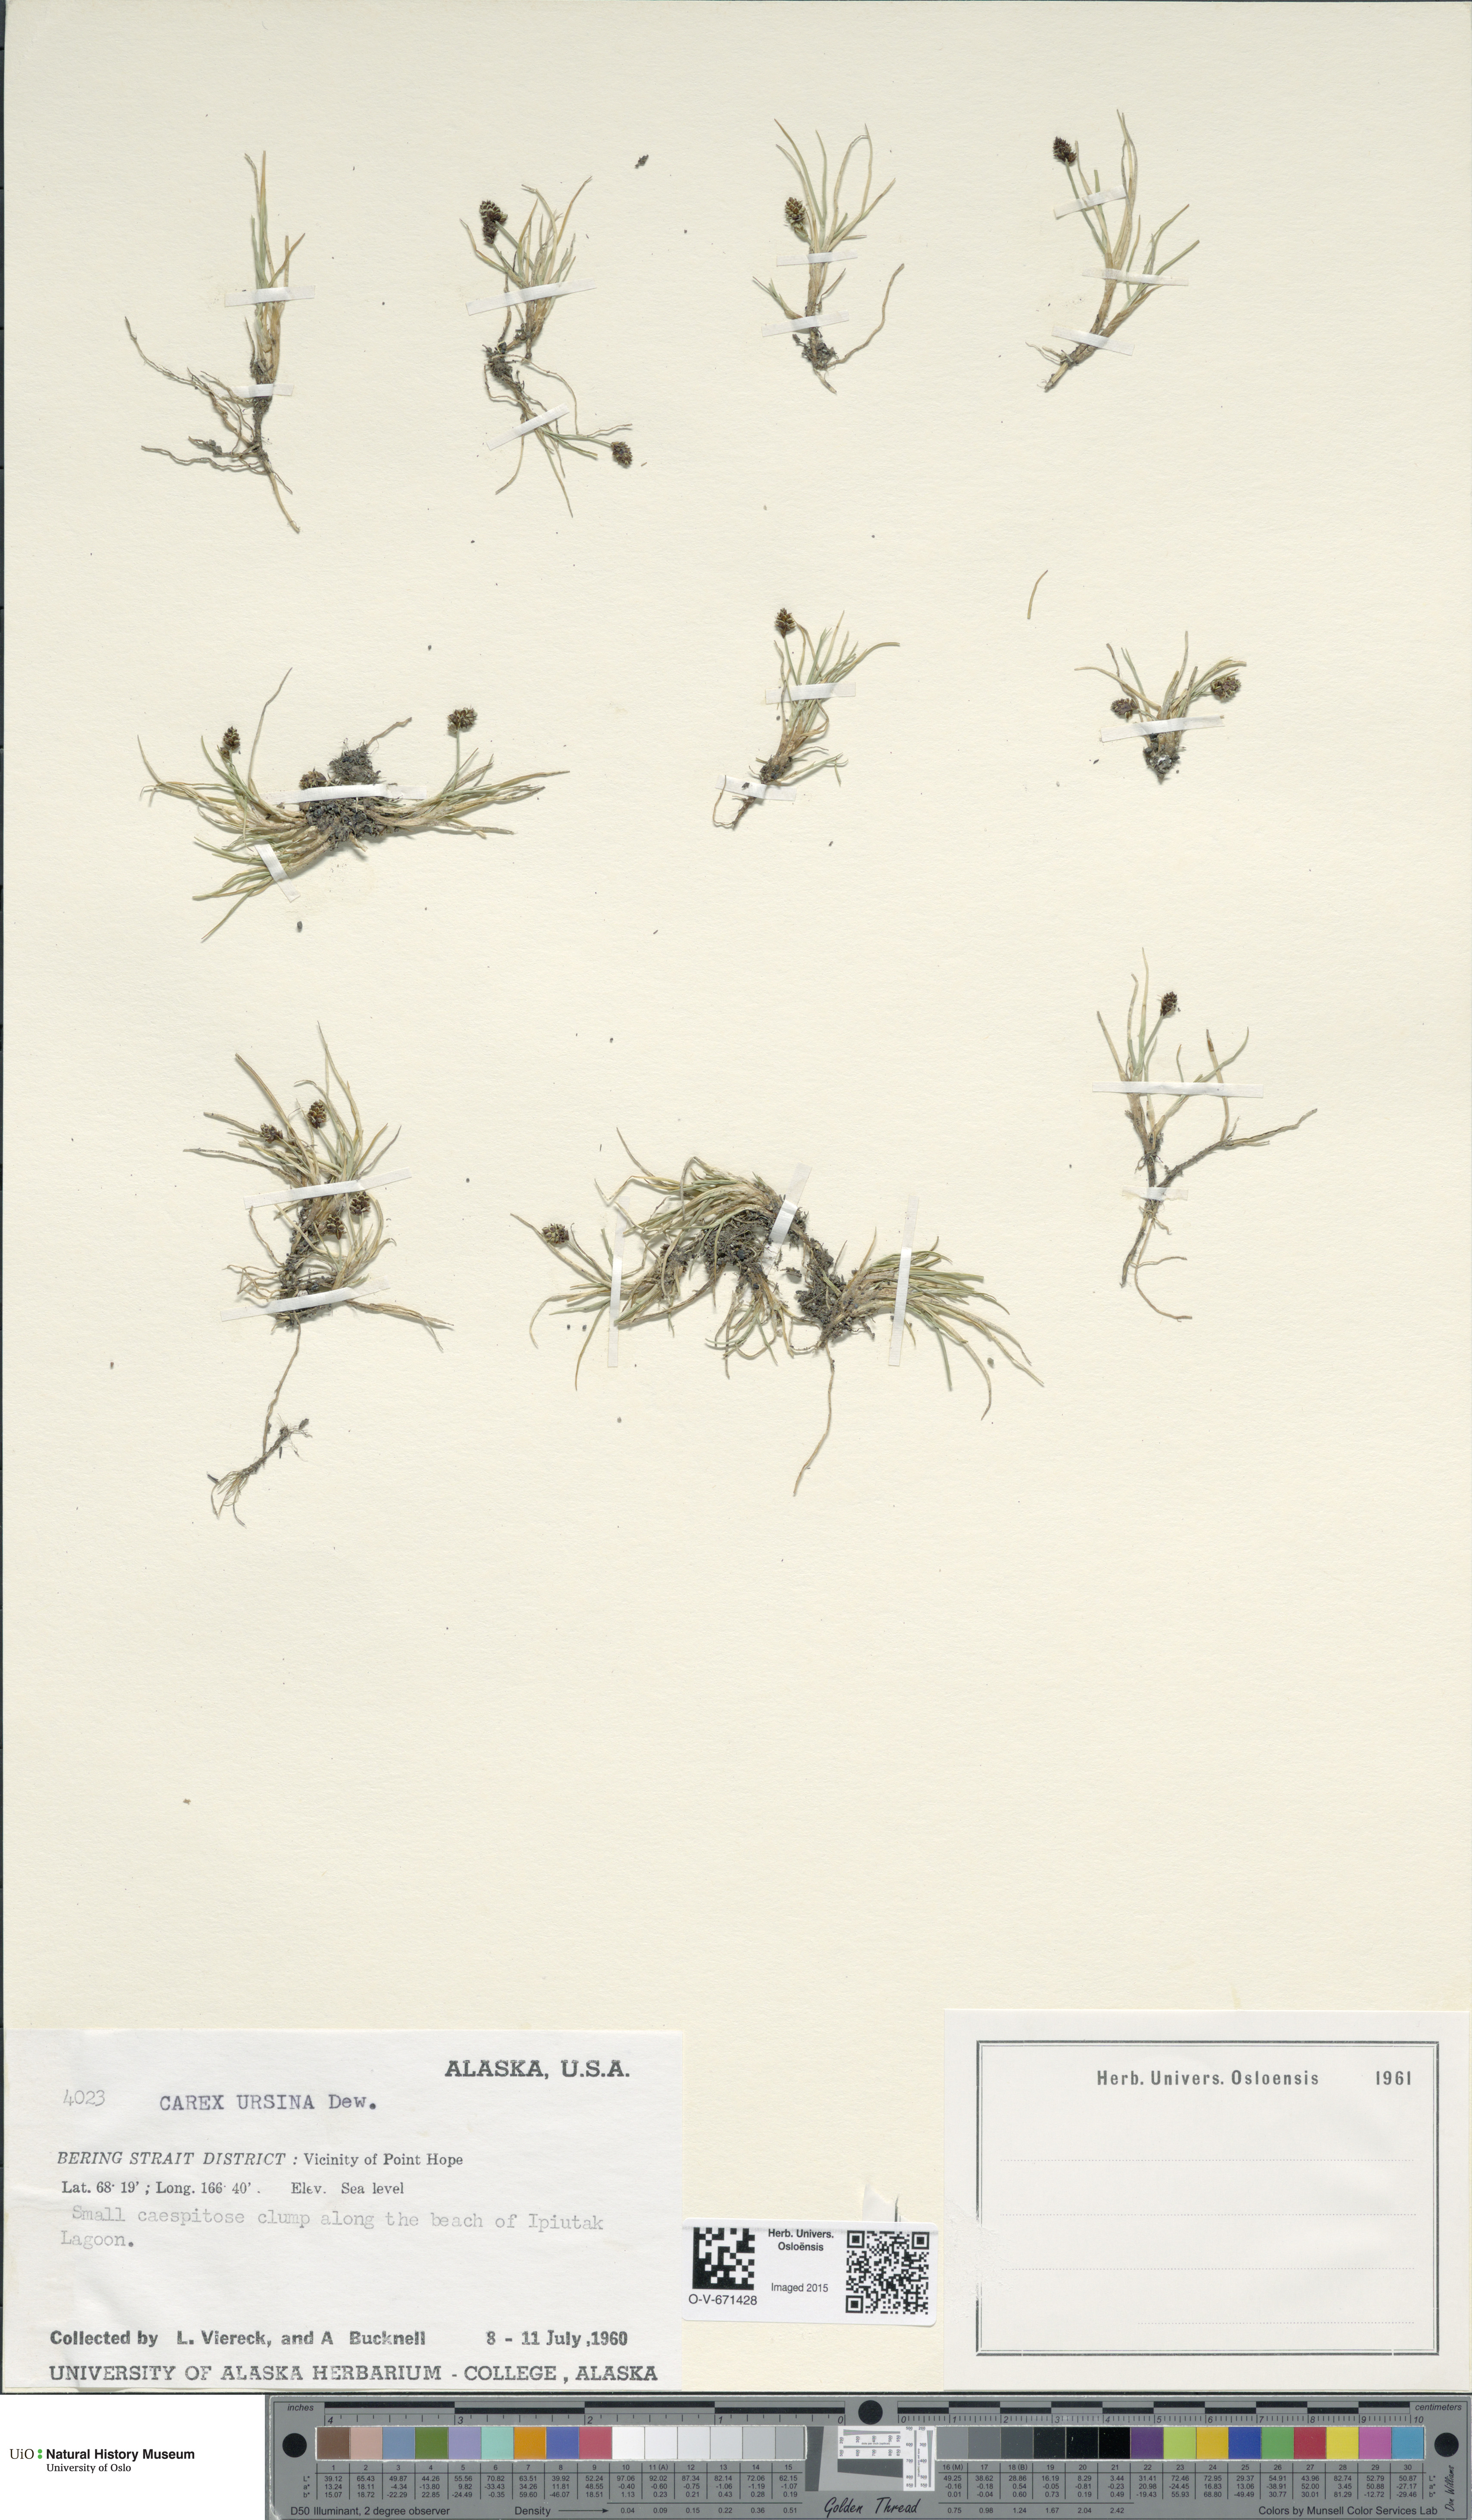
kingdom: Plantae
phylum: Tracheophyta
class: Liliopsida
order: Poales
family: Cyperaceae
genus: Carex
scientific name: Carex ursina
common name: Bear sedge
